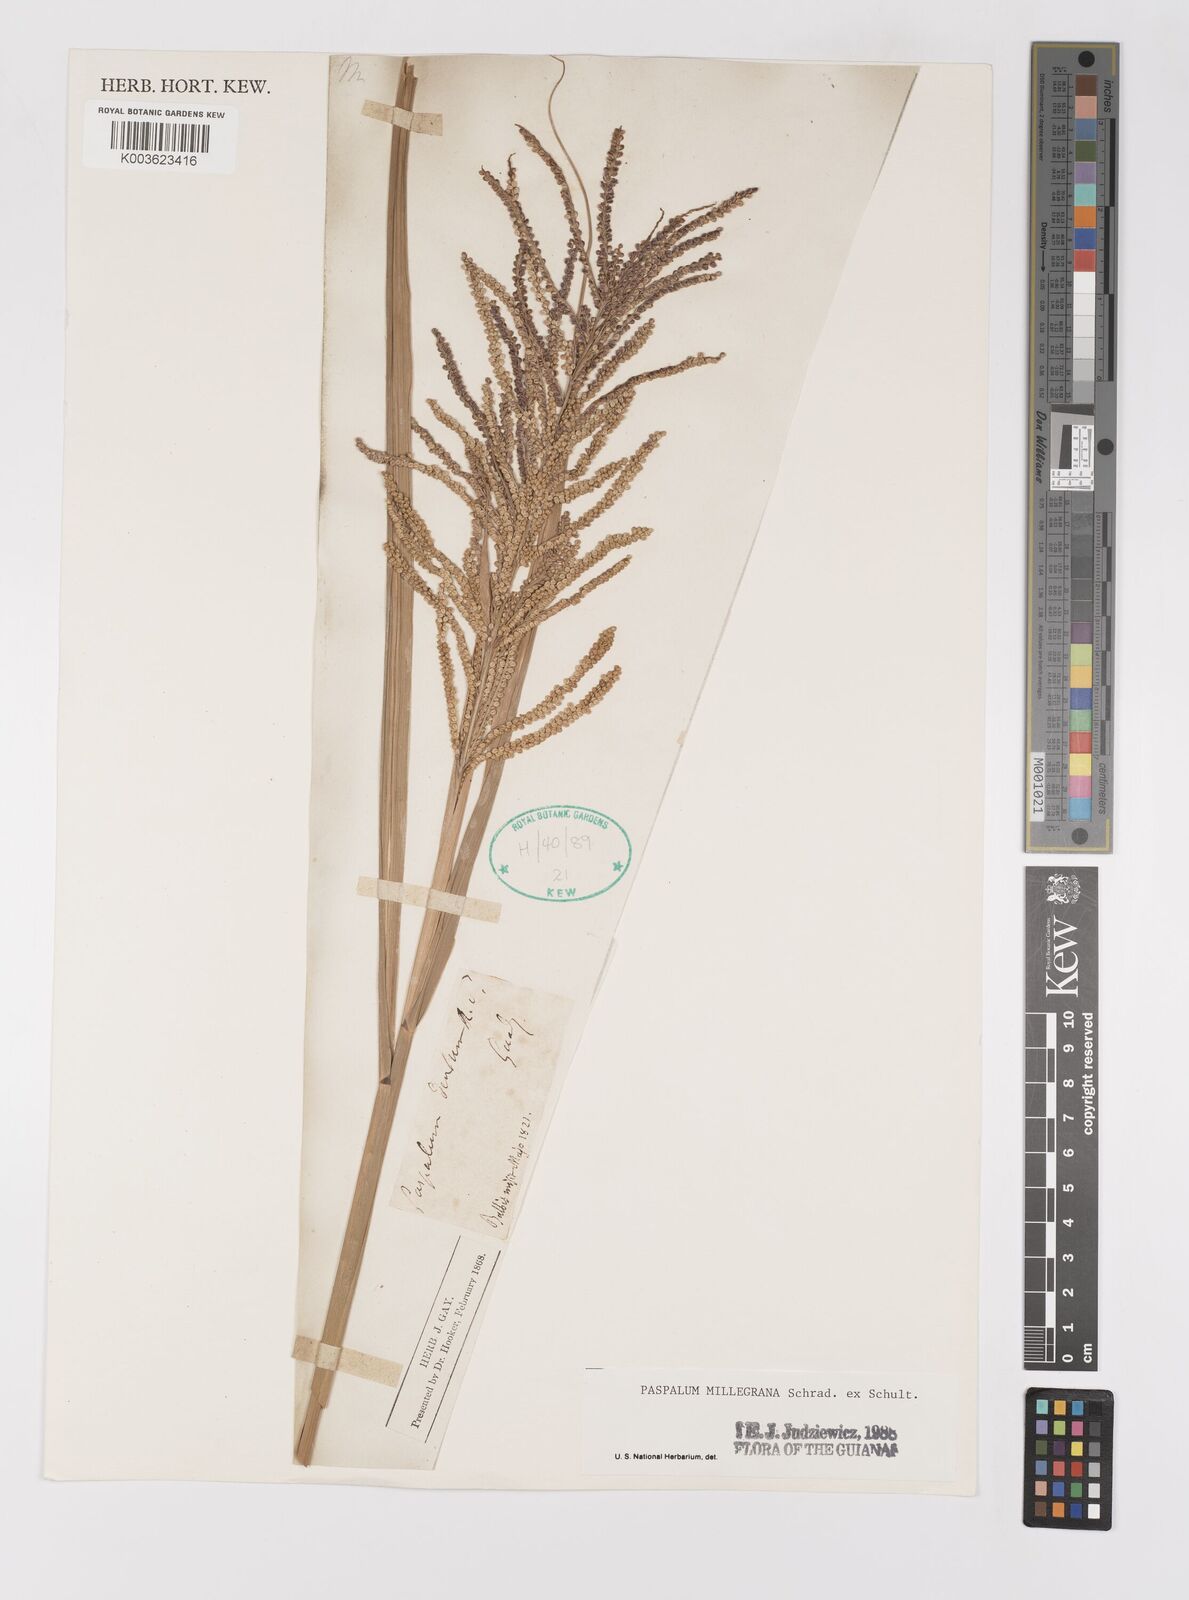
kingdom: Plantae
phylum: Tracheophyta
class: Liliopsida
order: Poales
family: Poaceae
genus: Paspalum
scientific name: Paspalum millegranum
